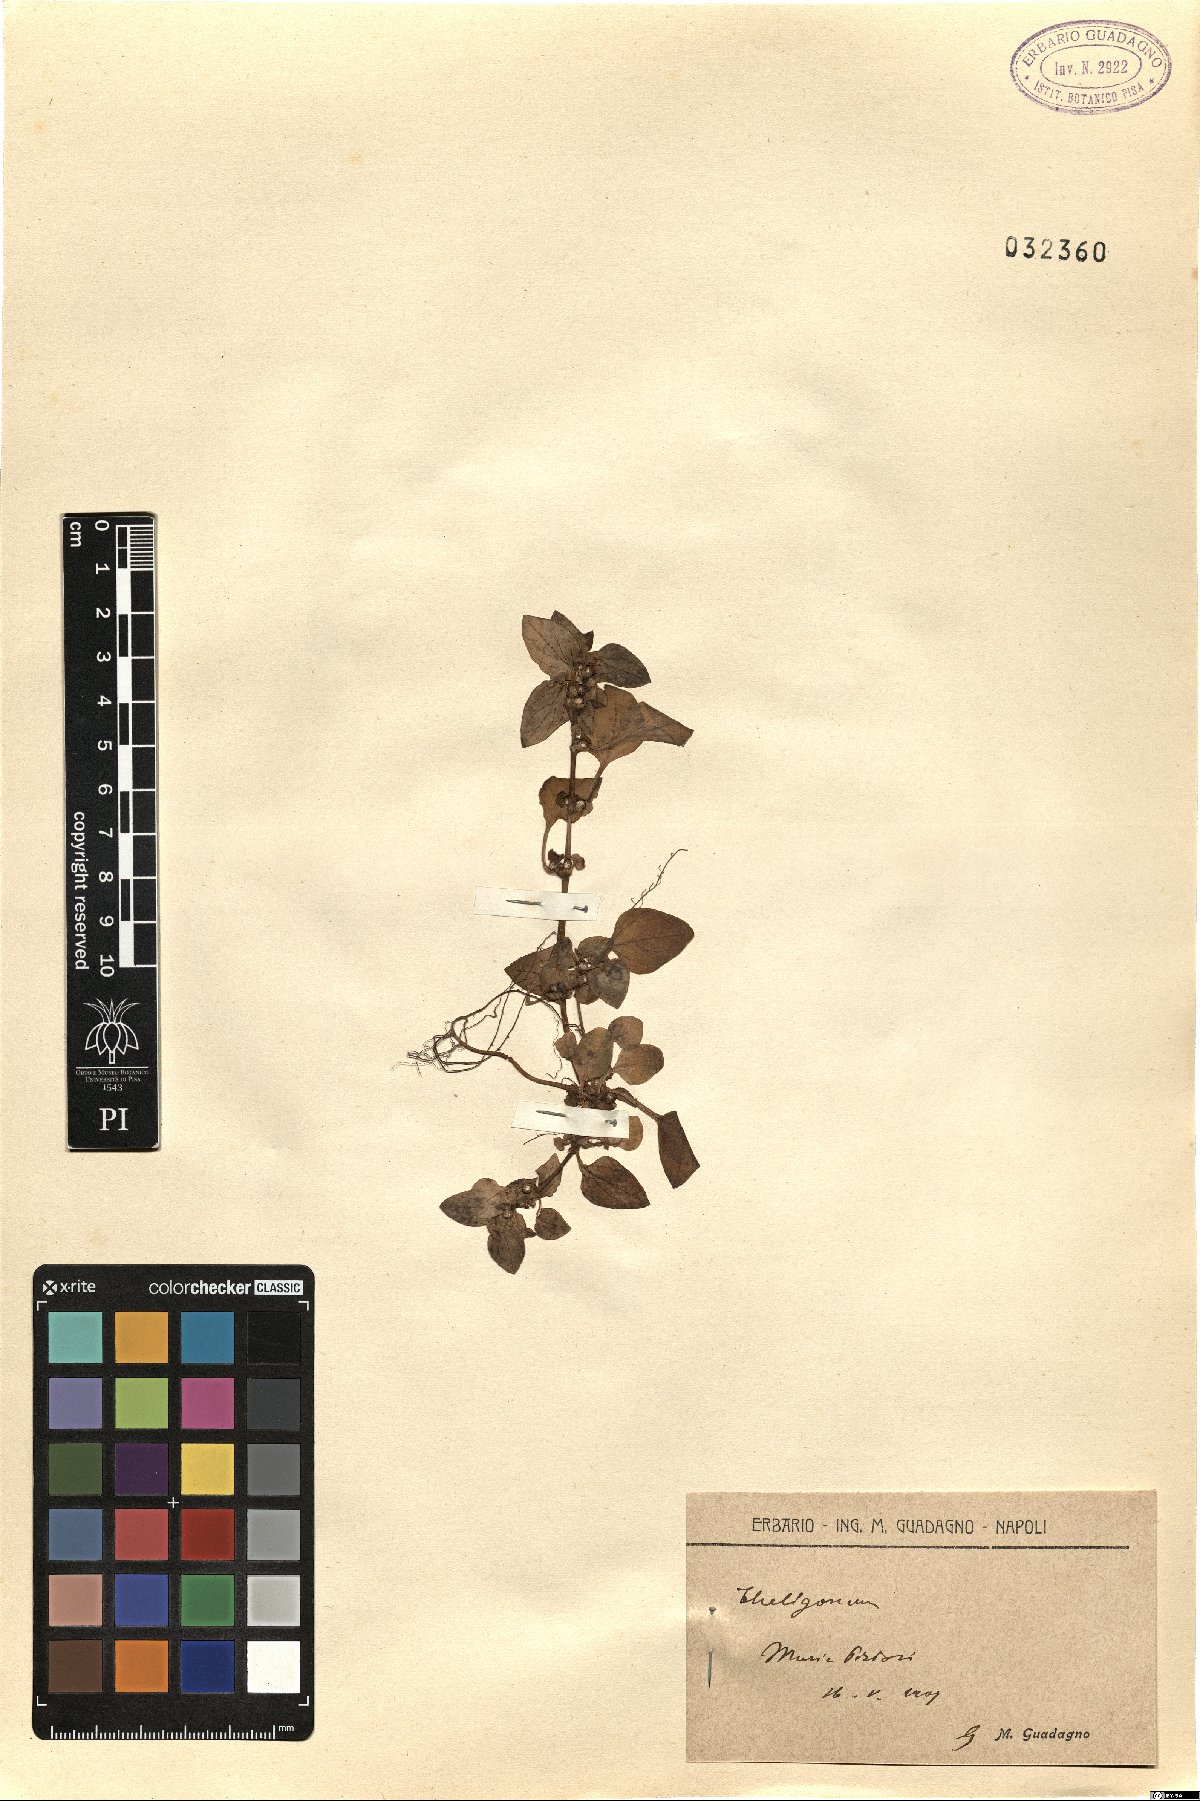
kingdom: Plantae
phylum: Tracheophyta
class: Magnoliopsida
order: Gentianales
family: Rubiaceae
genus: Theligonum
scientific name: Theligonum
